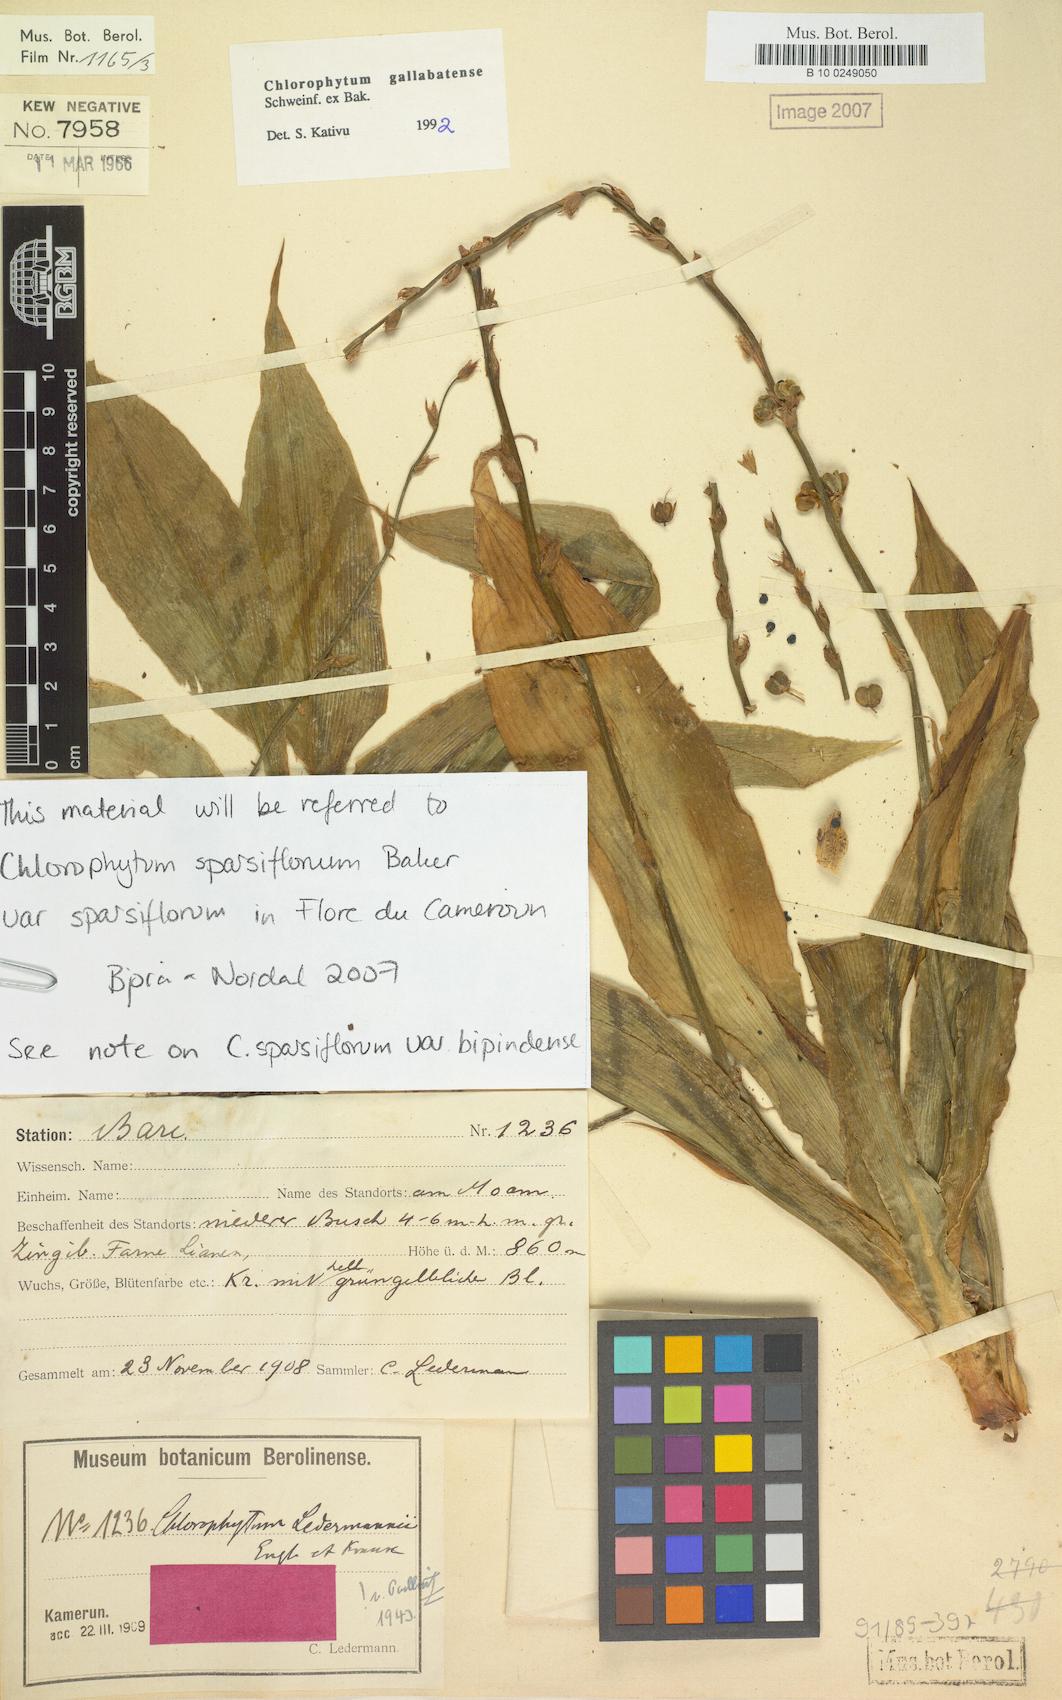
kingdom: Plantae
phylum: Tracheophyta
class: Liliopsida
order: Asparagales
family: Asparagaceae
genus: Chlorophytum
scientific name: Chlorophytum sparsiflorum
